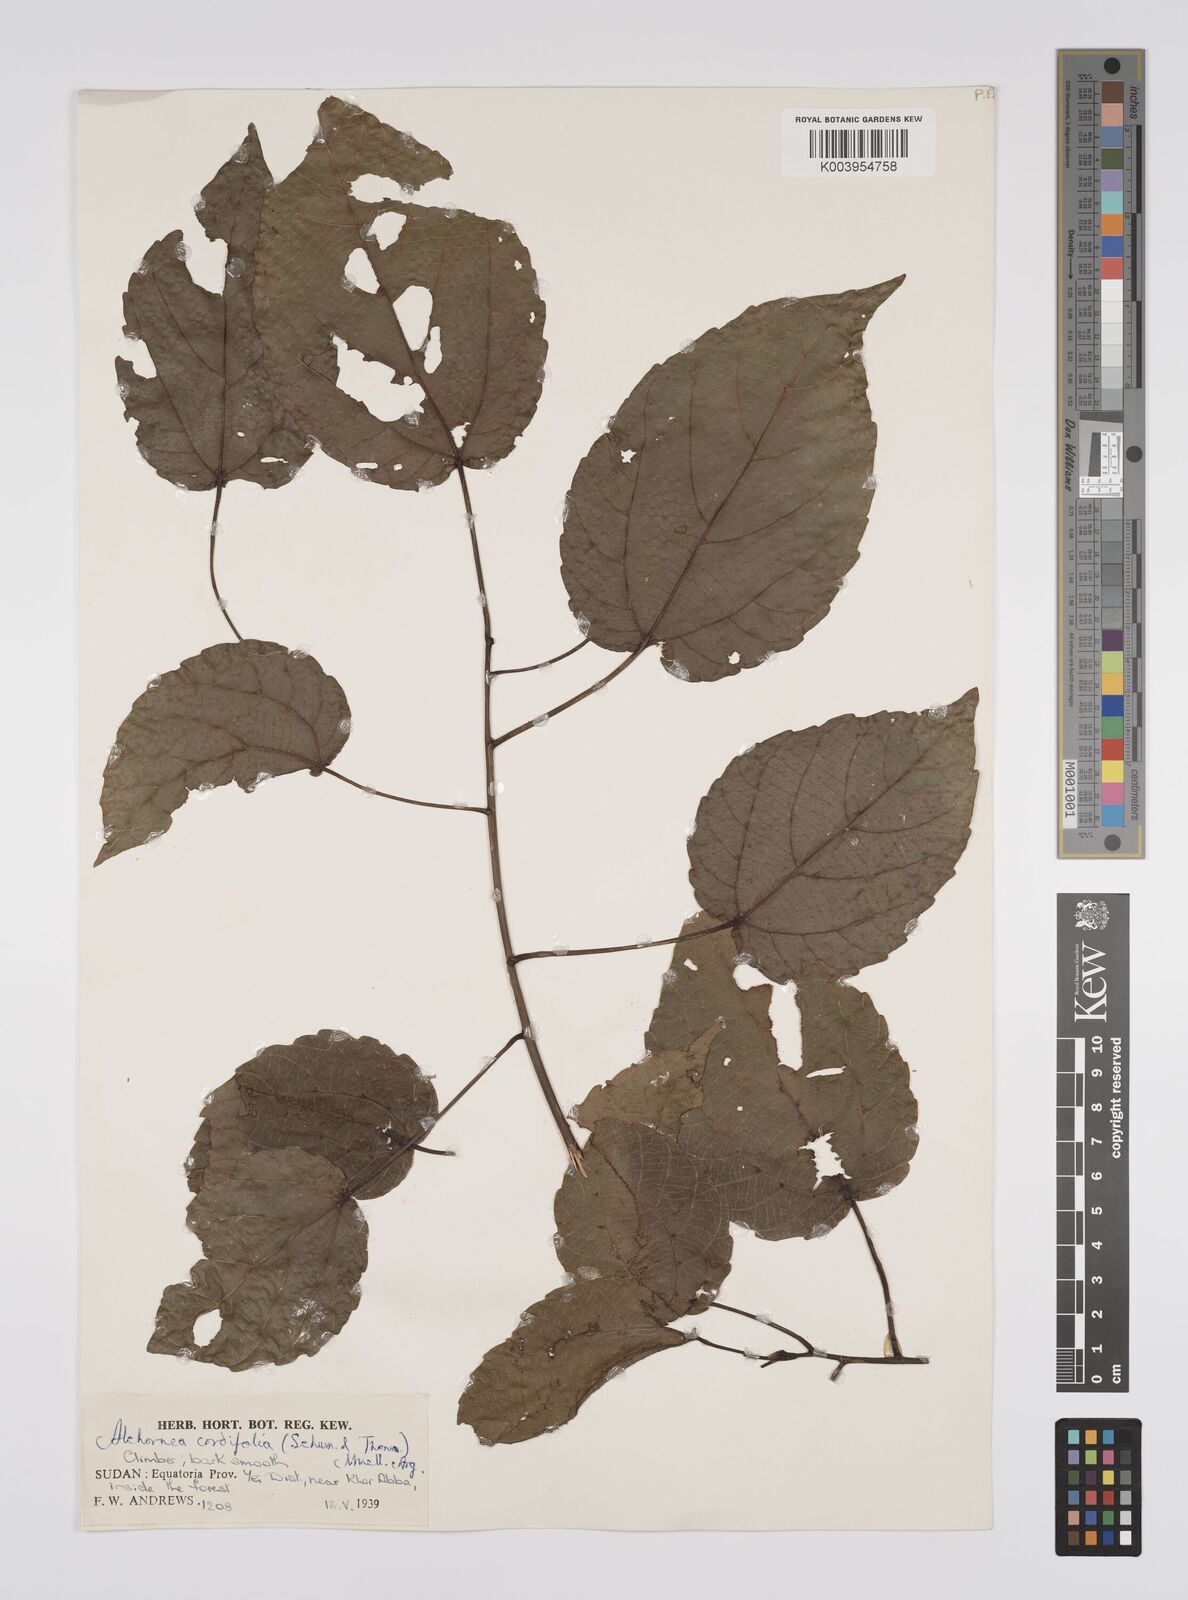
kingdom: Plantae
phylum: Tracheophyta
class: Magnoliopsida
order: Malpighiales
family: Euphorbiaceae
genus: Alchornea
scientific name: Alchornea cordifolia
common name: Christmasbush
